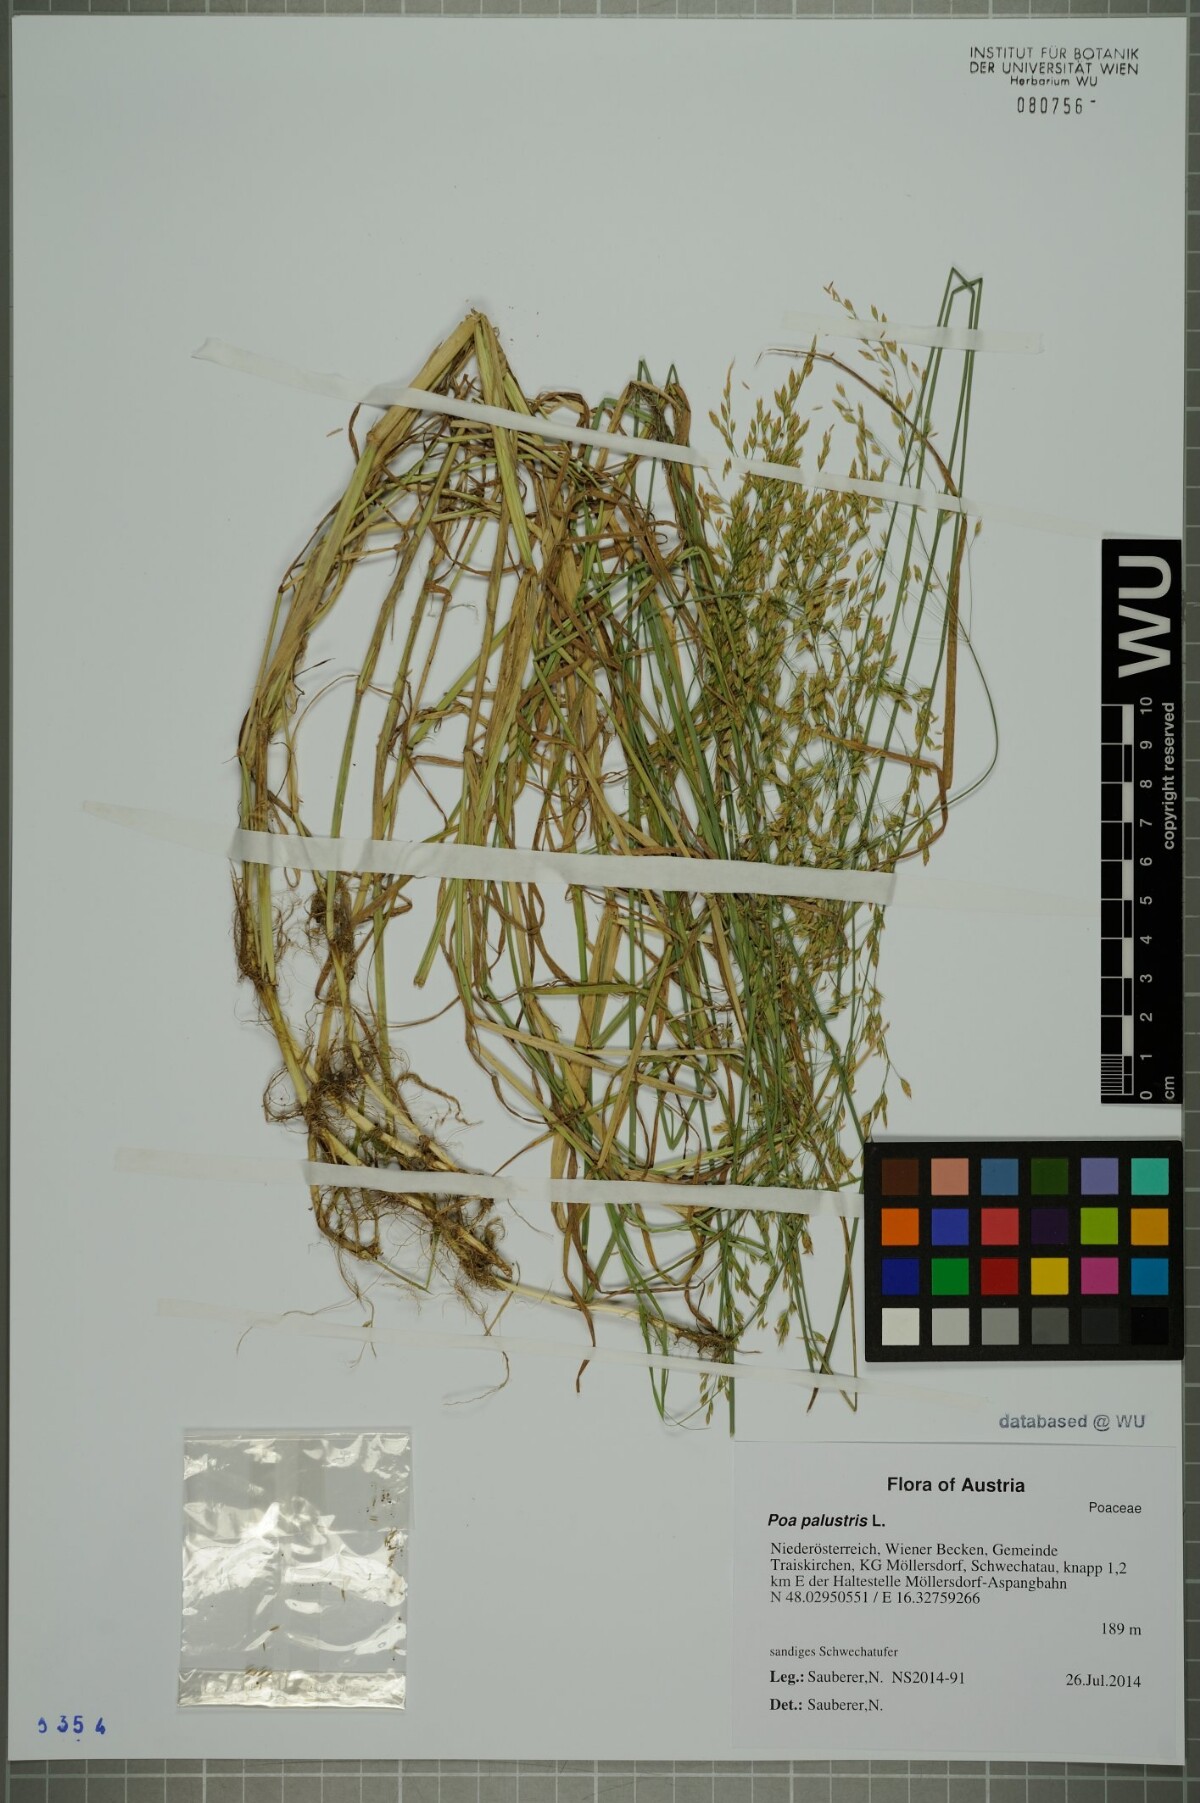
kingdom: Plantae
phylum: Tracheophyta
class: Liliopsida
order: Poales
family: Poaceae
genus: Poa
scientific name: Poa palustris
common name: Swamp meadow-grass
